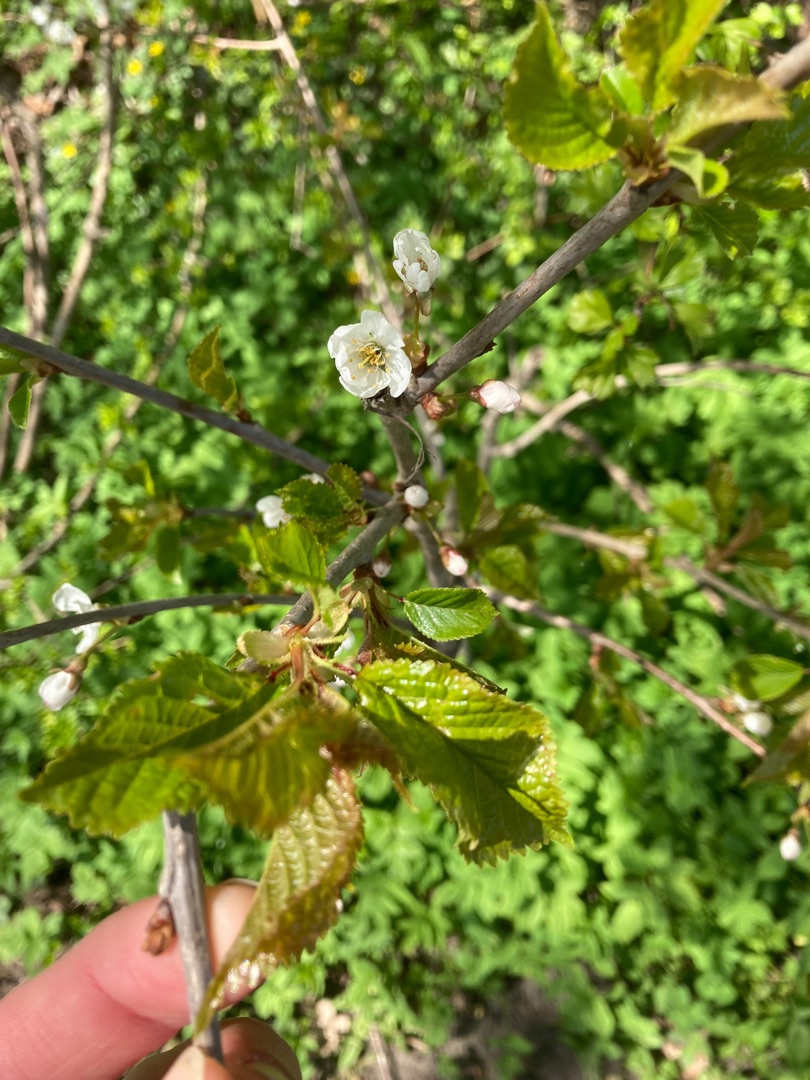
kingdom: Plantae
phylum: Tracheophyta
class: Magnoliopsida
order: Rosales
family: Rosaceae
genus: Prunus
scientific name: Prunus avium
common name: Fugle-kirsebær
